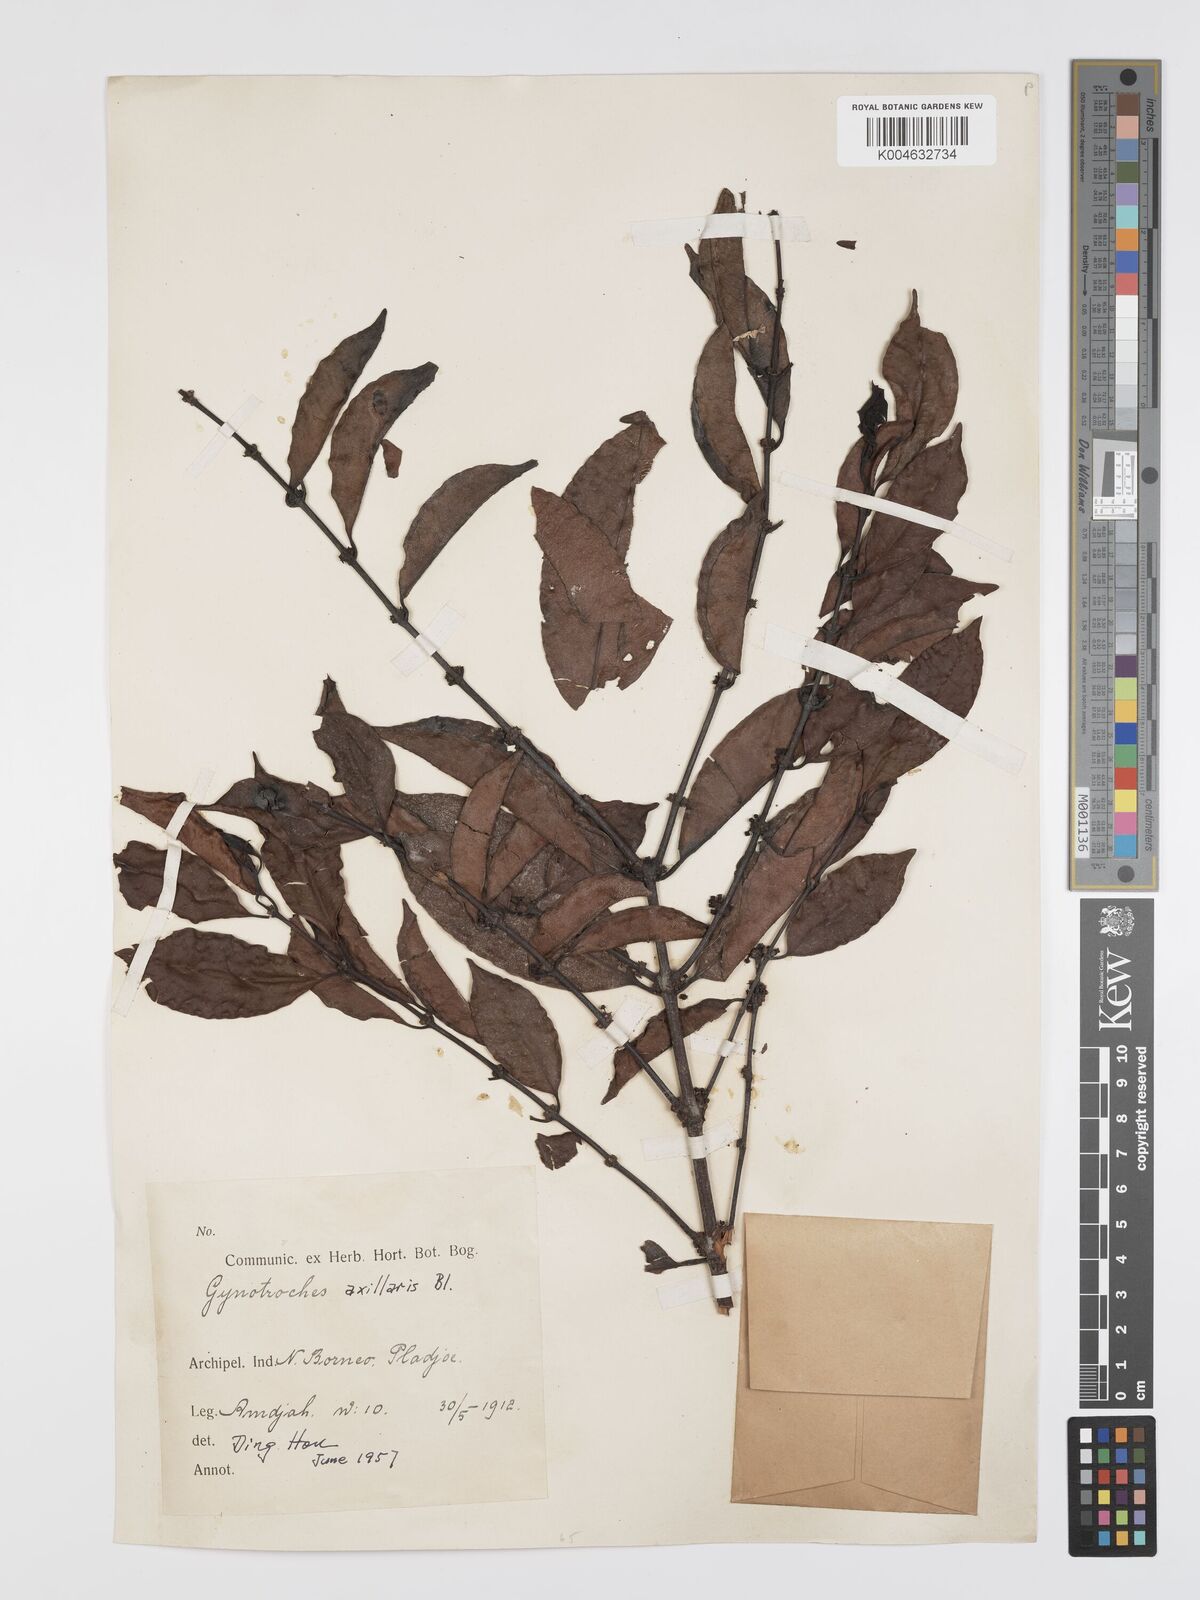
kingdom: Plantae
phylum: Tracheophyta
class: Magnoliopsida
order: Malpighiales
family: Rhizophoraceae
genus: Gynotroches
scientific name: Gynotroches axillaris
